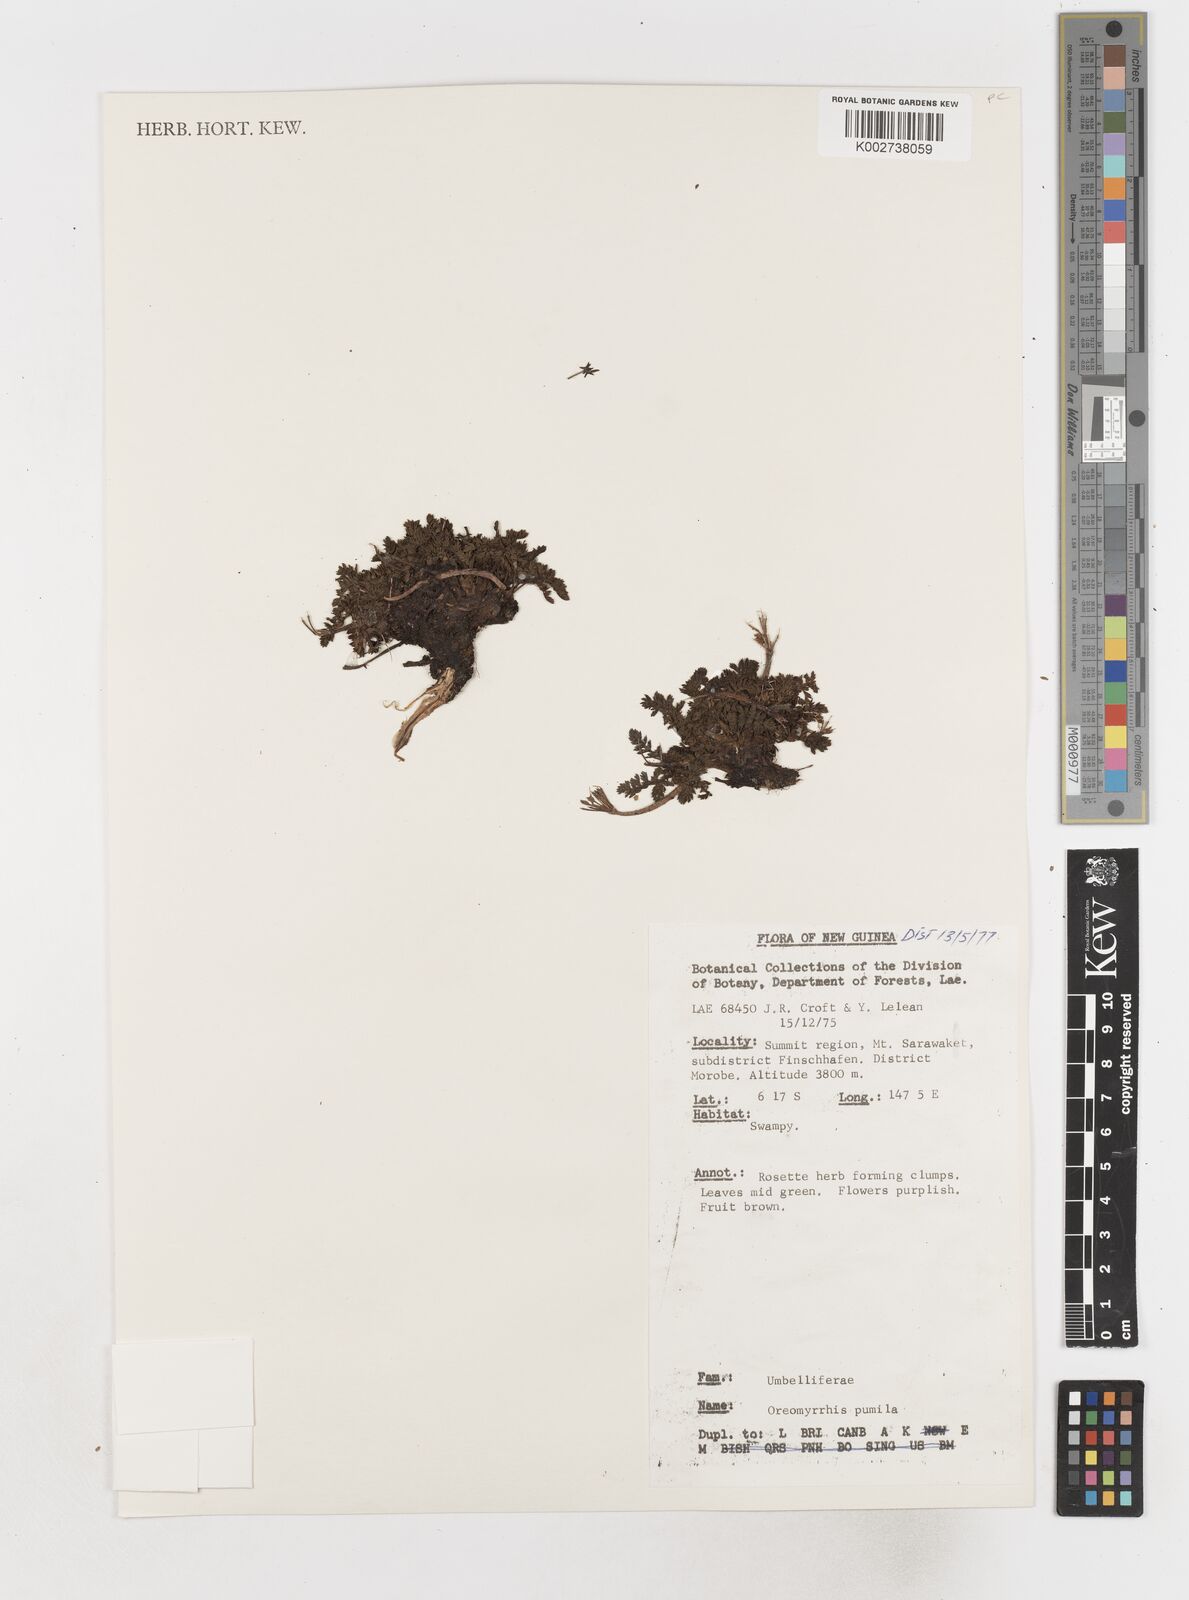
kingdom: Plantae
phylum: Tracheophyta
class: Magnoliopsida
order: Apiales
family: Apiaceae
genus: Chaerophyllum
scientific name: Chaerophyllum pumilum
